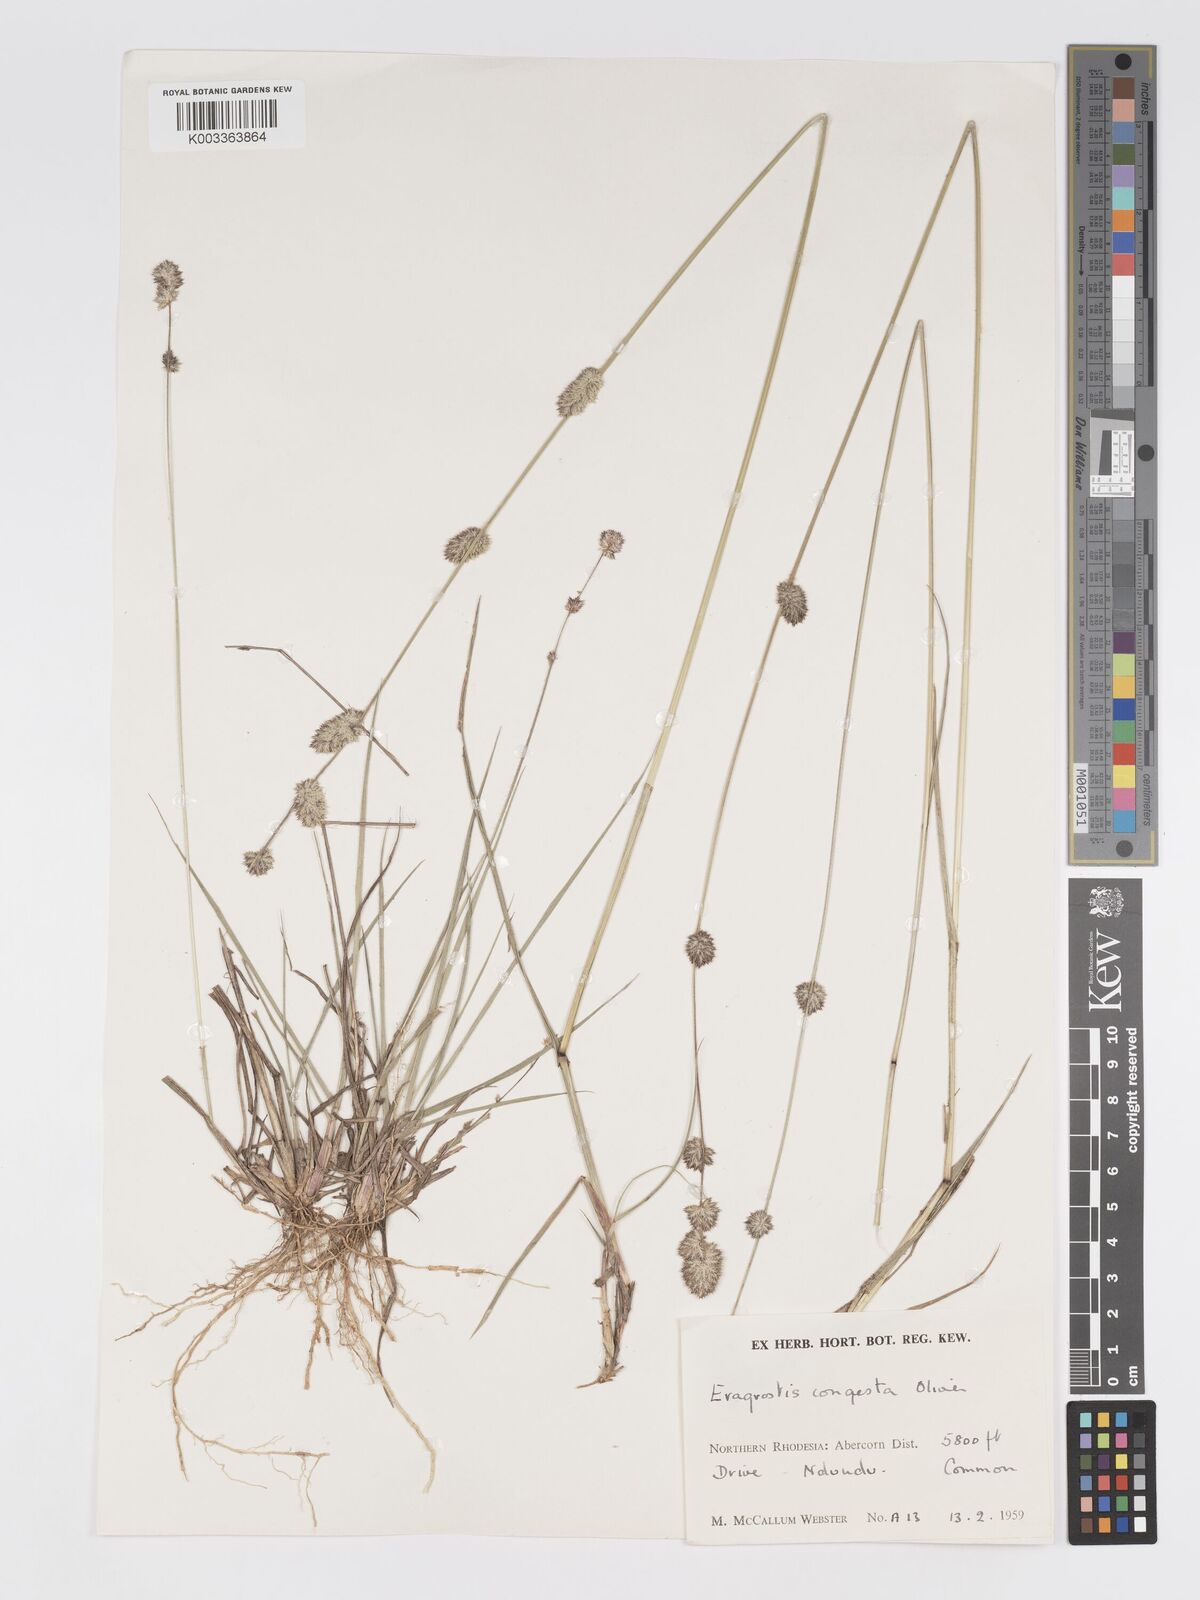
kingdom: Plantae
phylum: Tracheophyta
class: Liliopsida
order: Poales
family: Poaceae
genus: Eragrostis
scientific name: Eragrostis congesta
